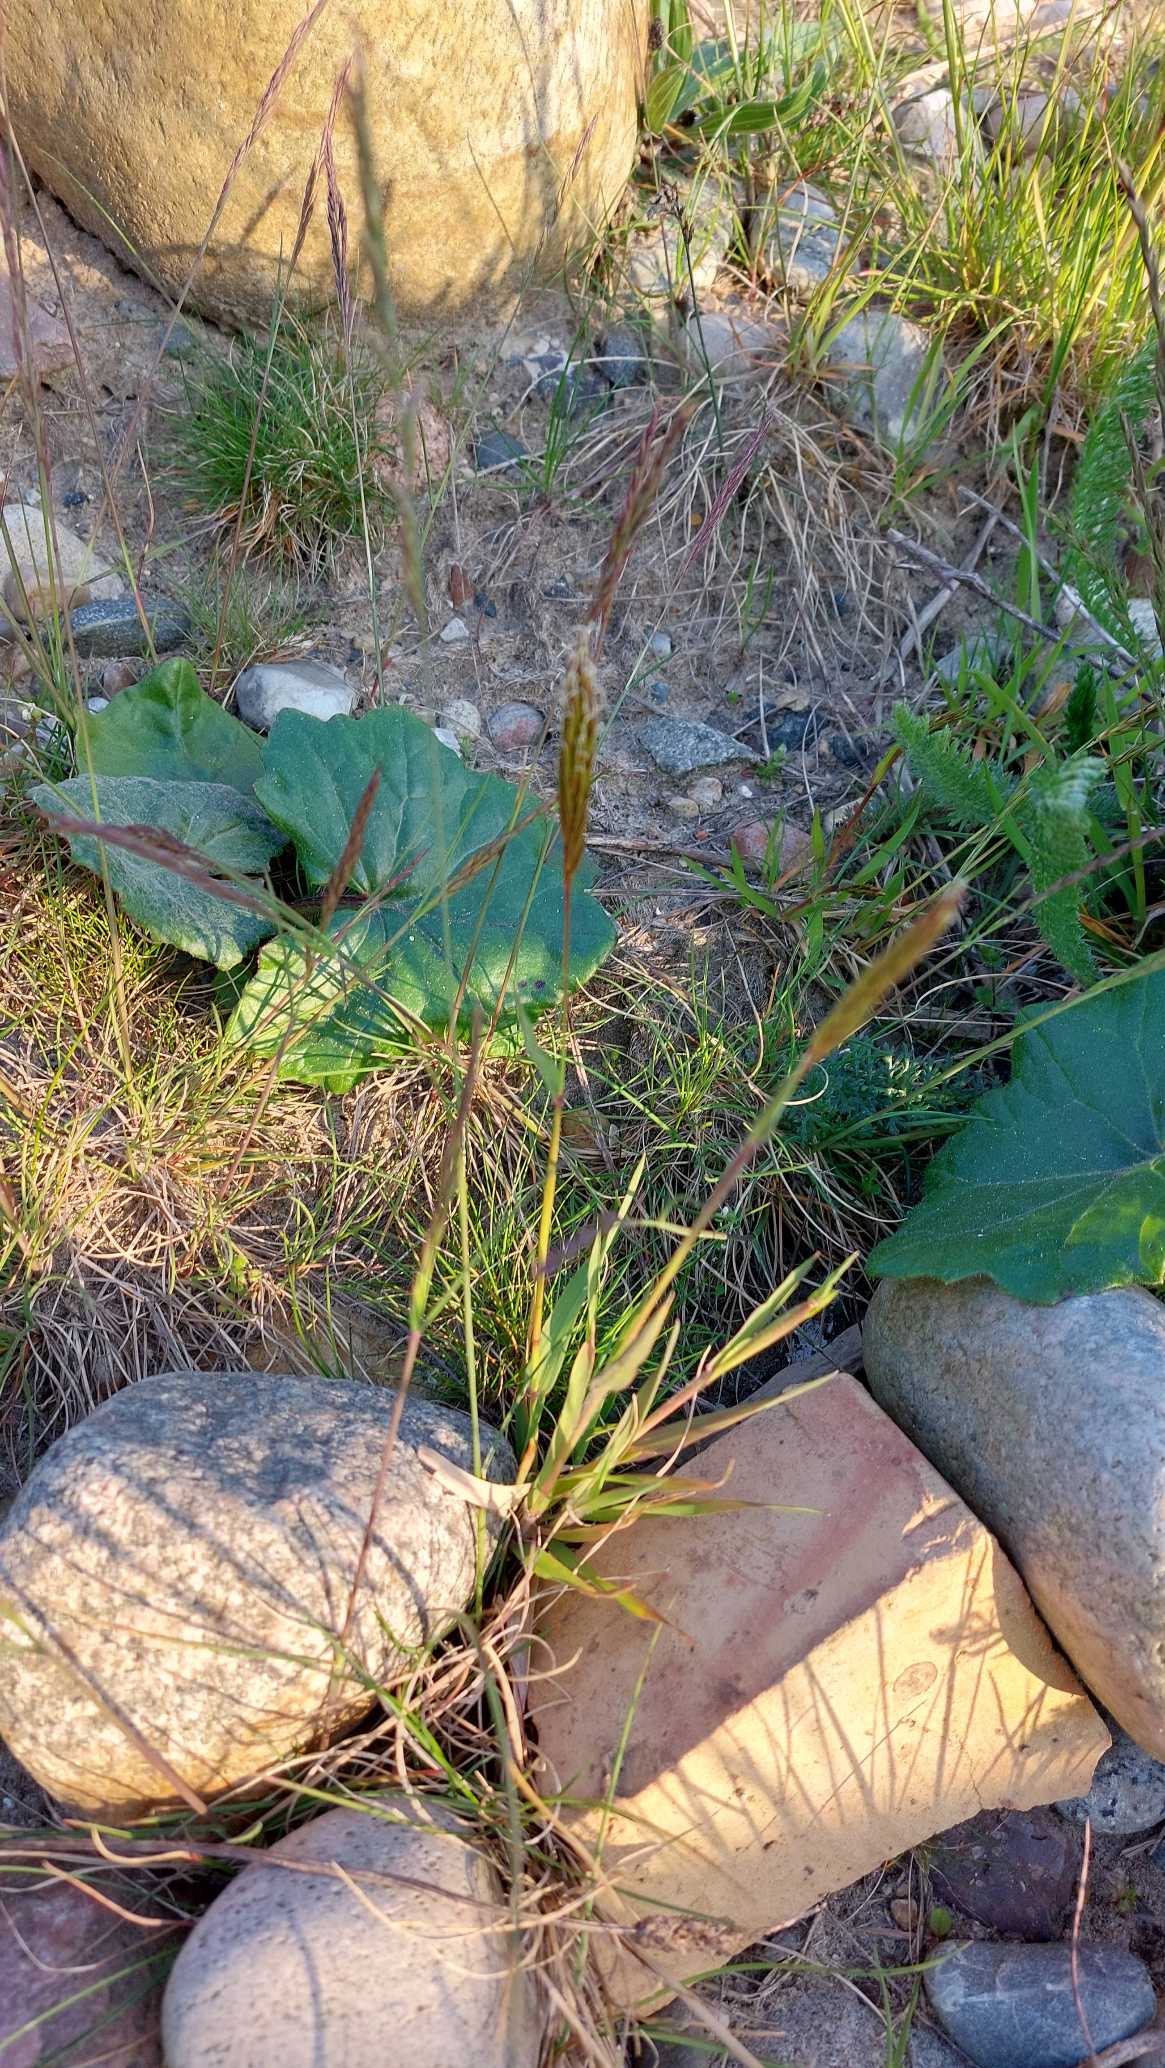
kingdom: Plantae
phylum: Tracheophyta
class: Liliopsida
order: Poales
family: Poaceae
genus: Anthoxanthum
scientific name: Anthoxanthum odoratum
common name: Vellugtende gulaks
